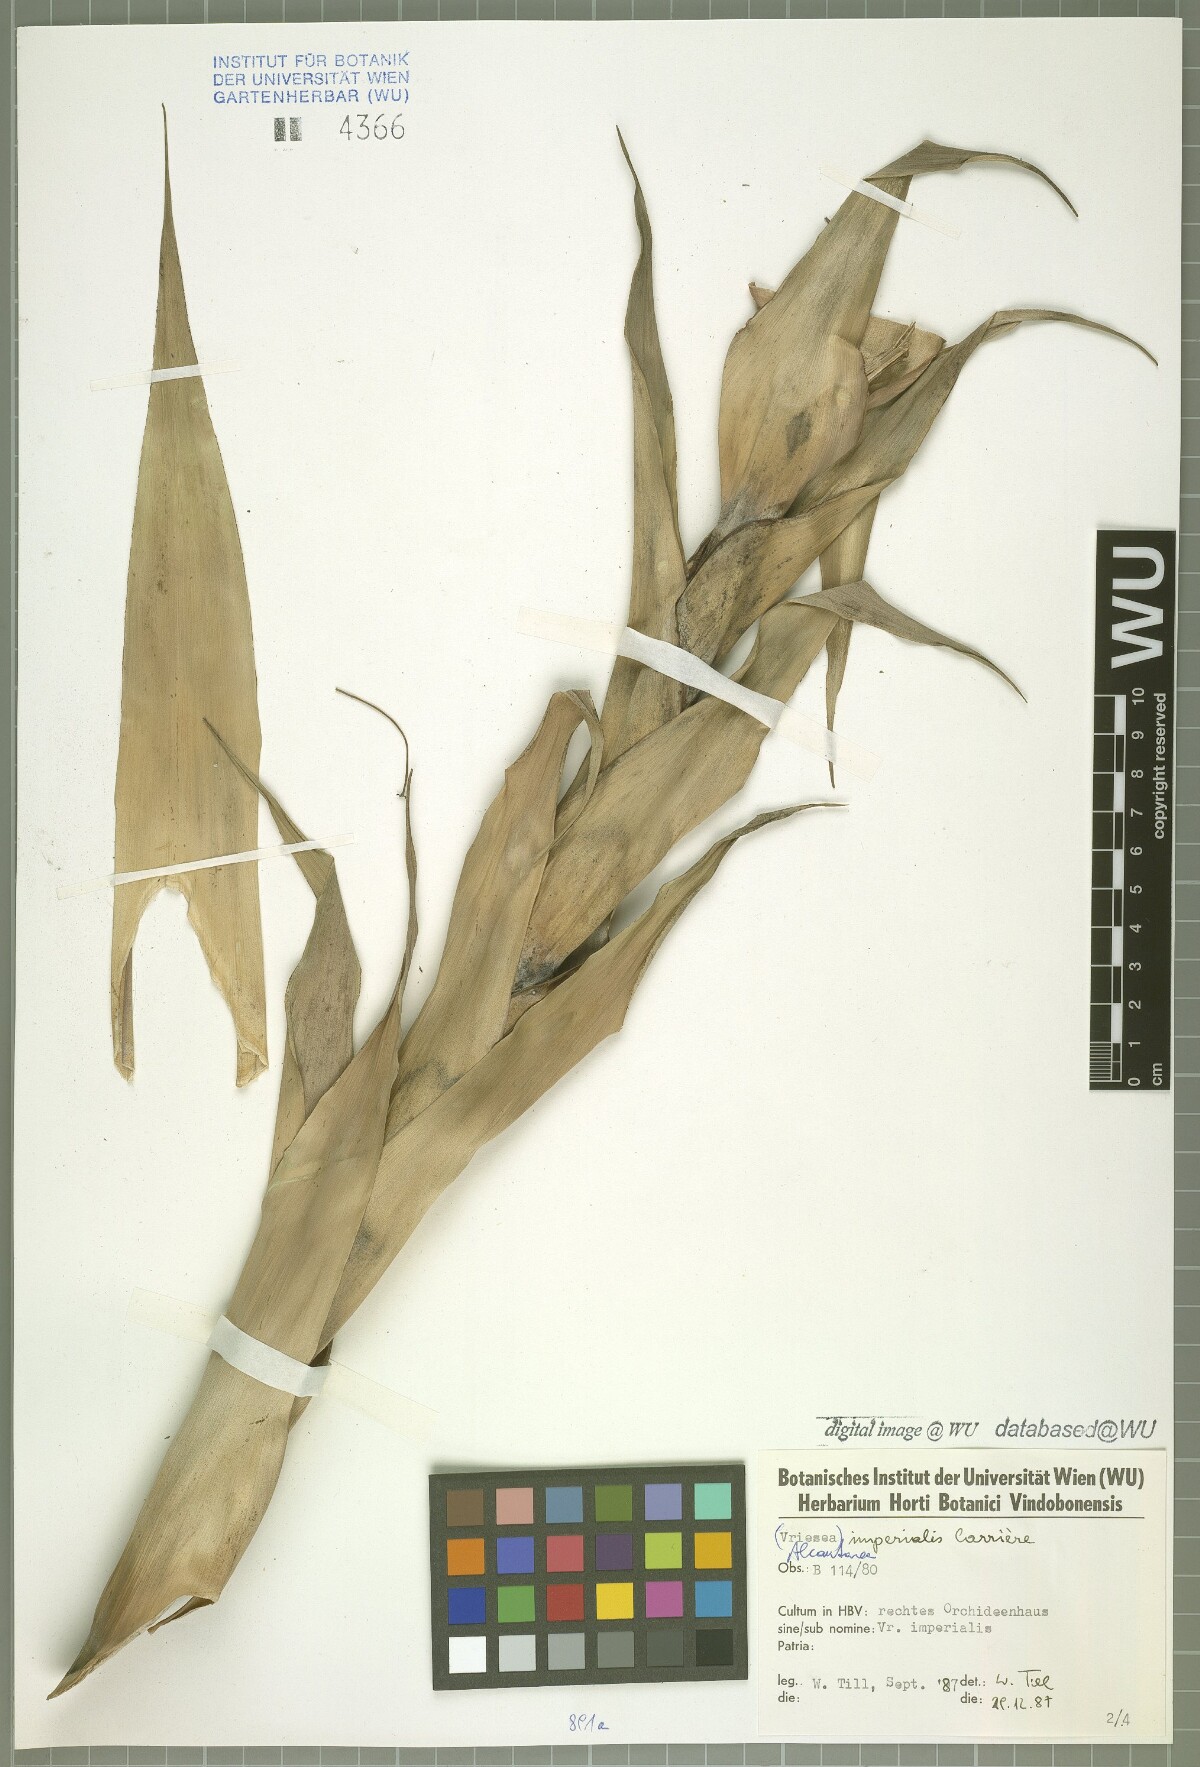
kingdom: Plantae
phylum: Tracheophyta
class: Liliopsida
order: Poales
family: Bromeliaceae
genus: Alcantarea
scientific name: Alcantarea imperialis
